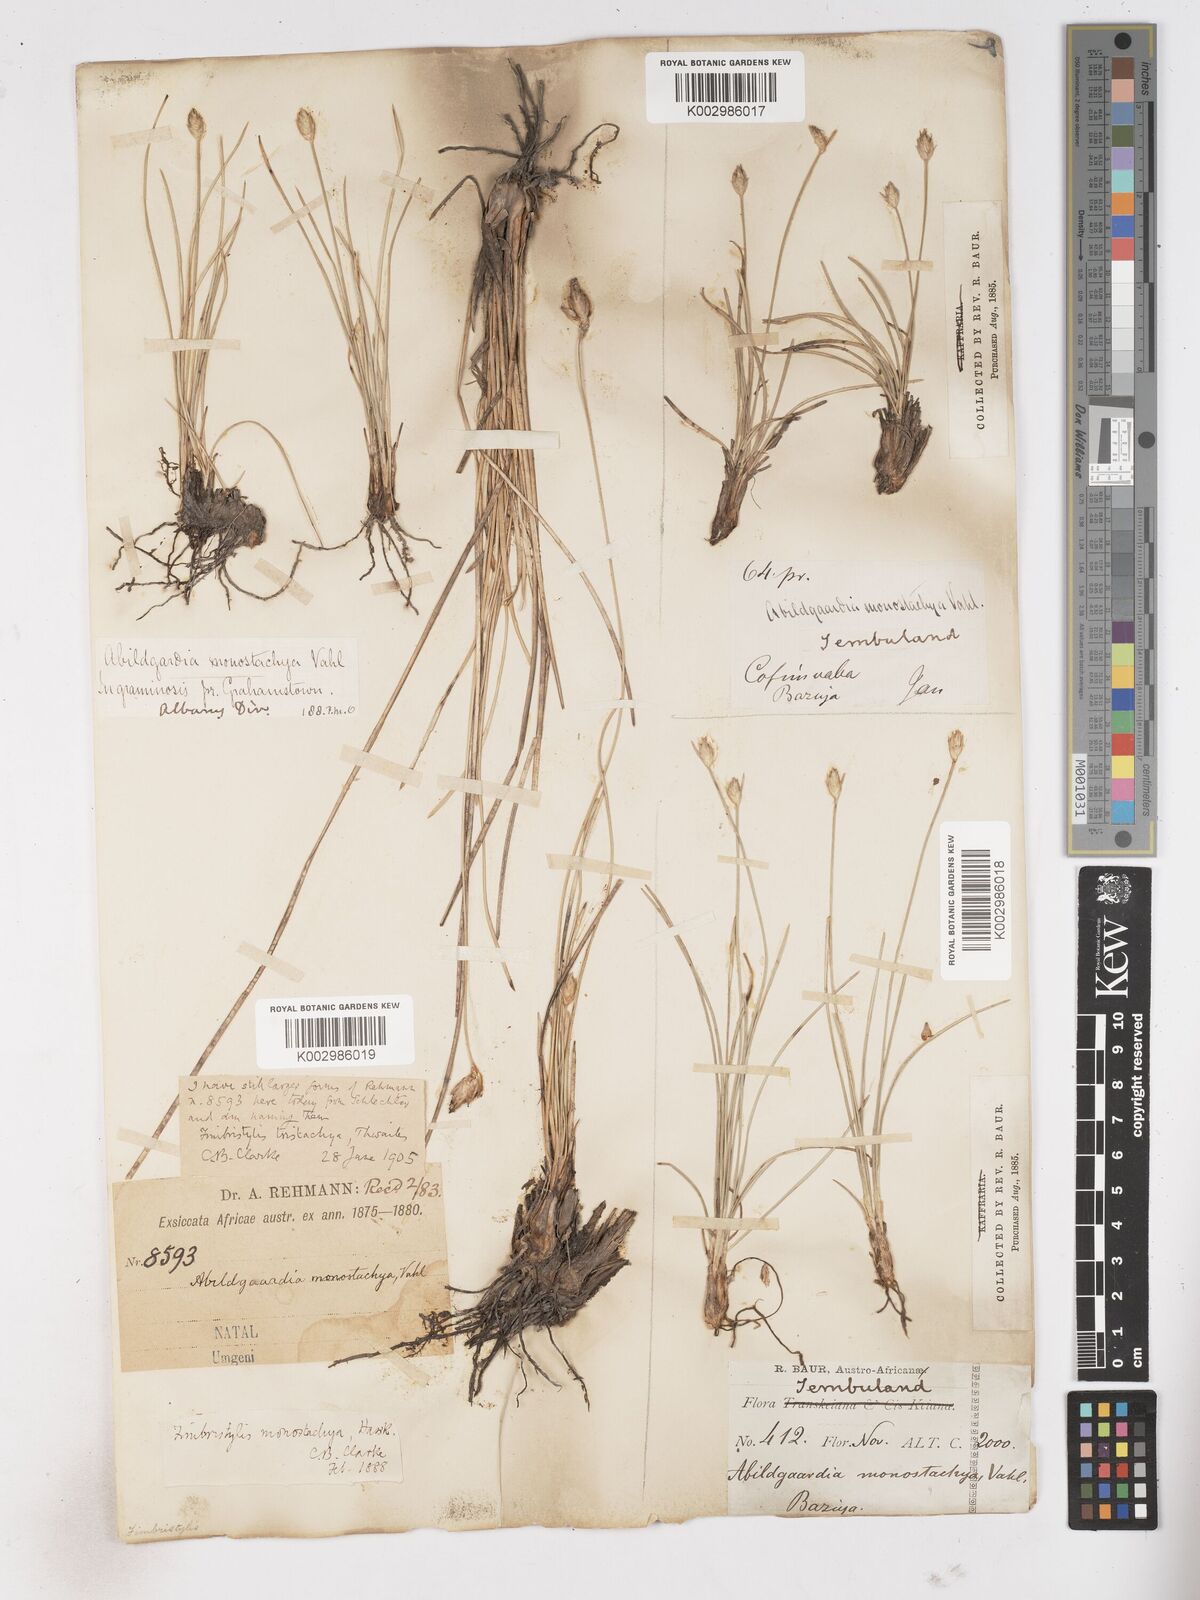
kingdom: Plantae
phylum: Tracheophyta
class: Liliopsida
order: Poales
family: Cyperaceae
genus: Abildgaardia
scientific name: Abildgaardia ovata
